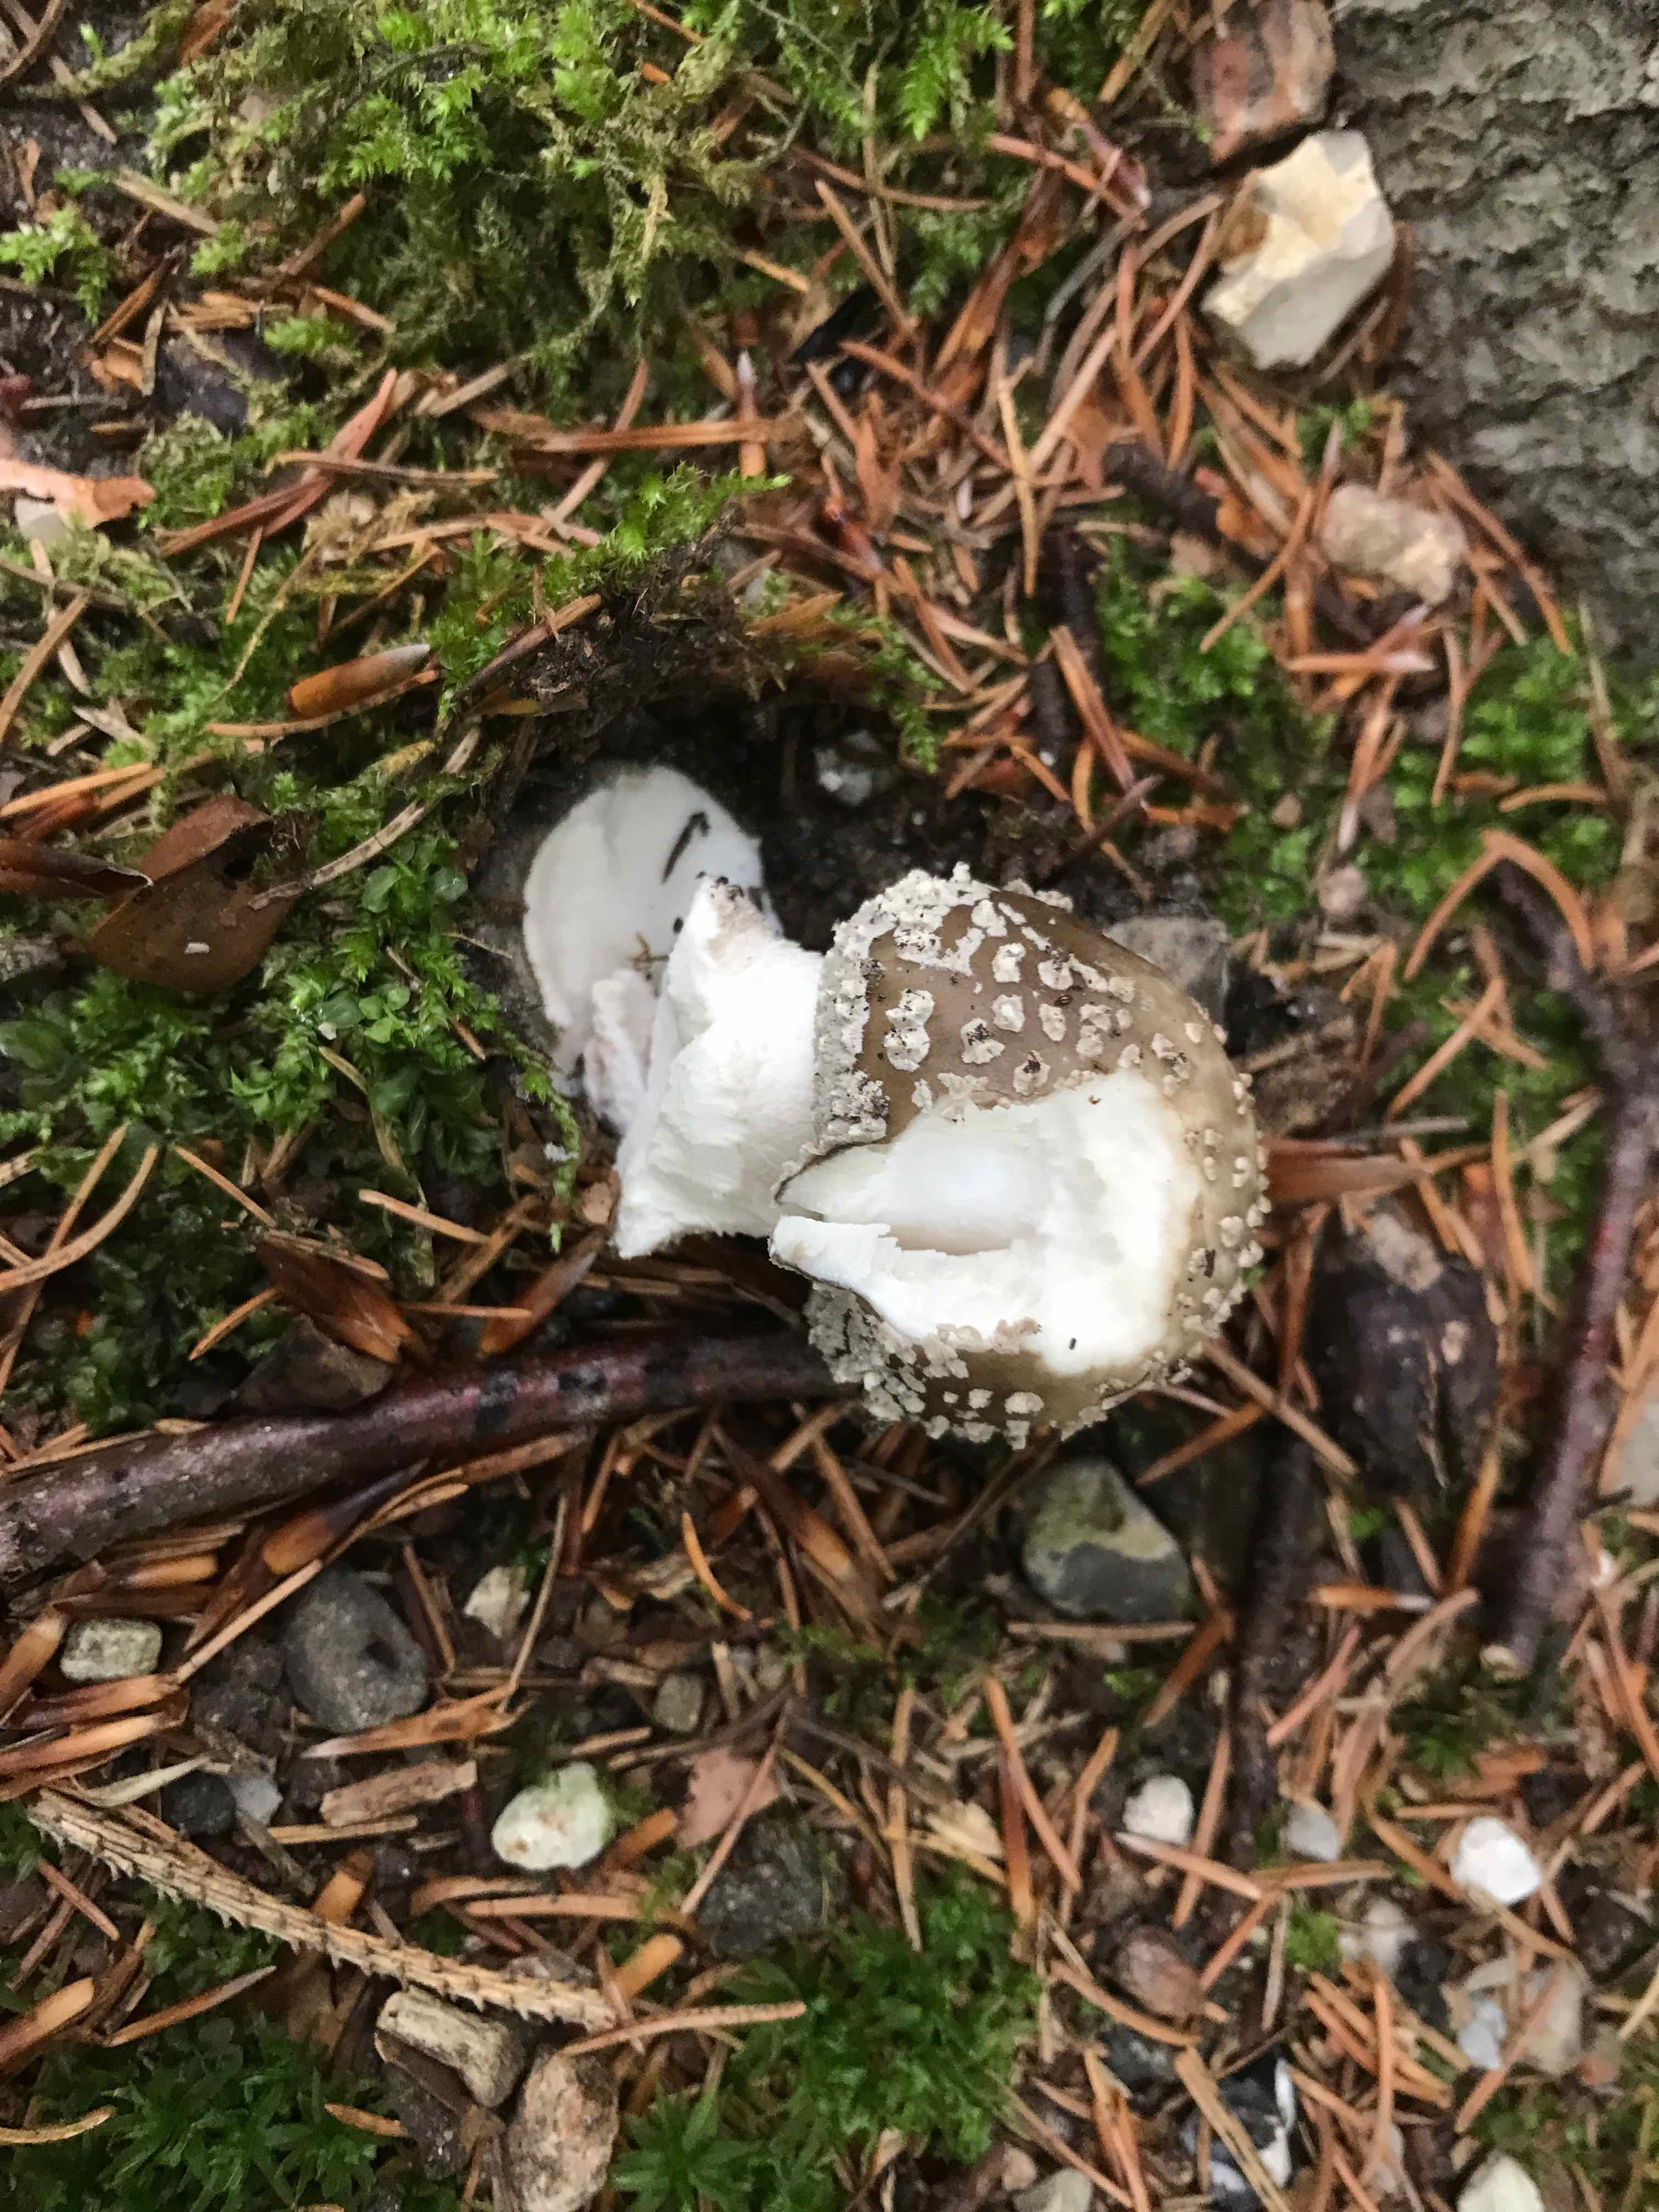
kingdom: Fungi
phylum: Basidiomycota
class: Agaricomycetes
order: Agaricales
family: Amanitaceae
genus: Amanita
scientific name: Amanita
